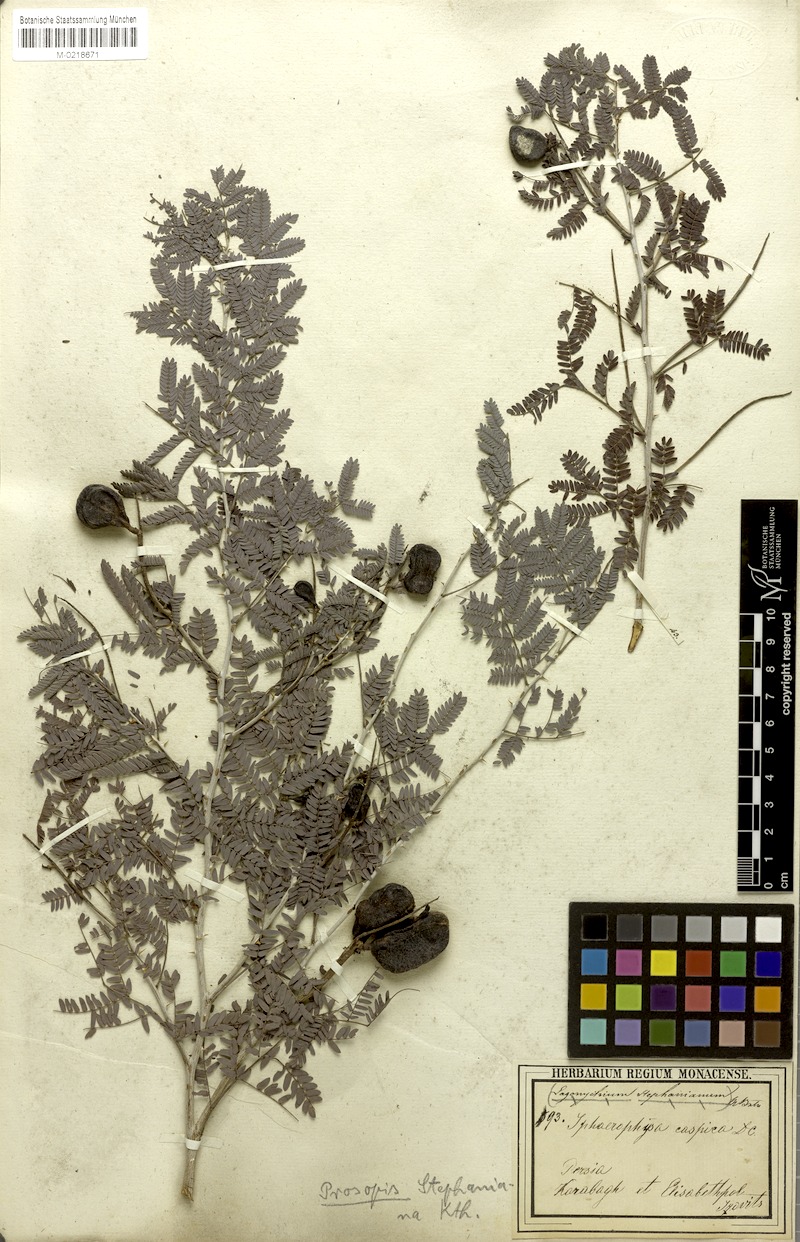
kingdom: Plantae
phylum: Tracheophyta
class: Magnoliopsida
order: Fabales
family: Fabaceae
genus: Prosopis
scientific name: Prosopis farcta
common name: Syrian mesquite
